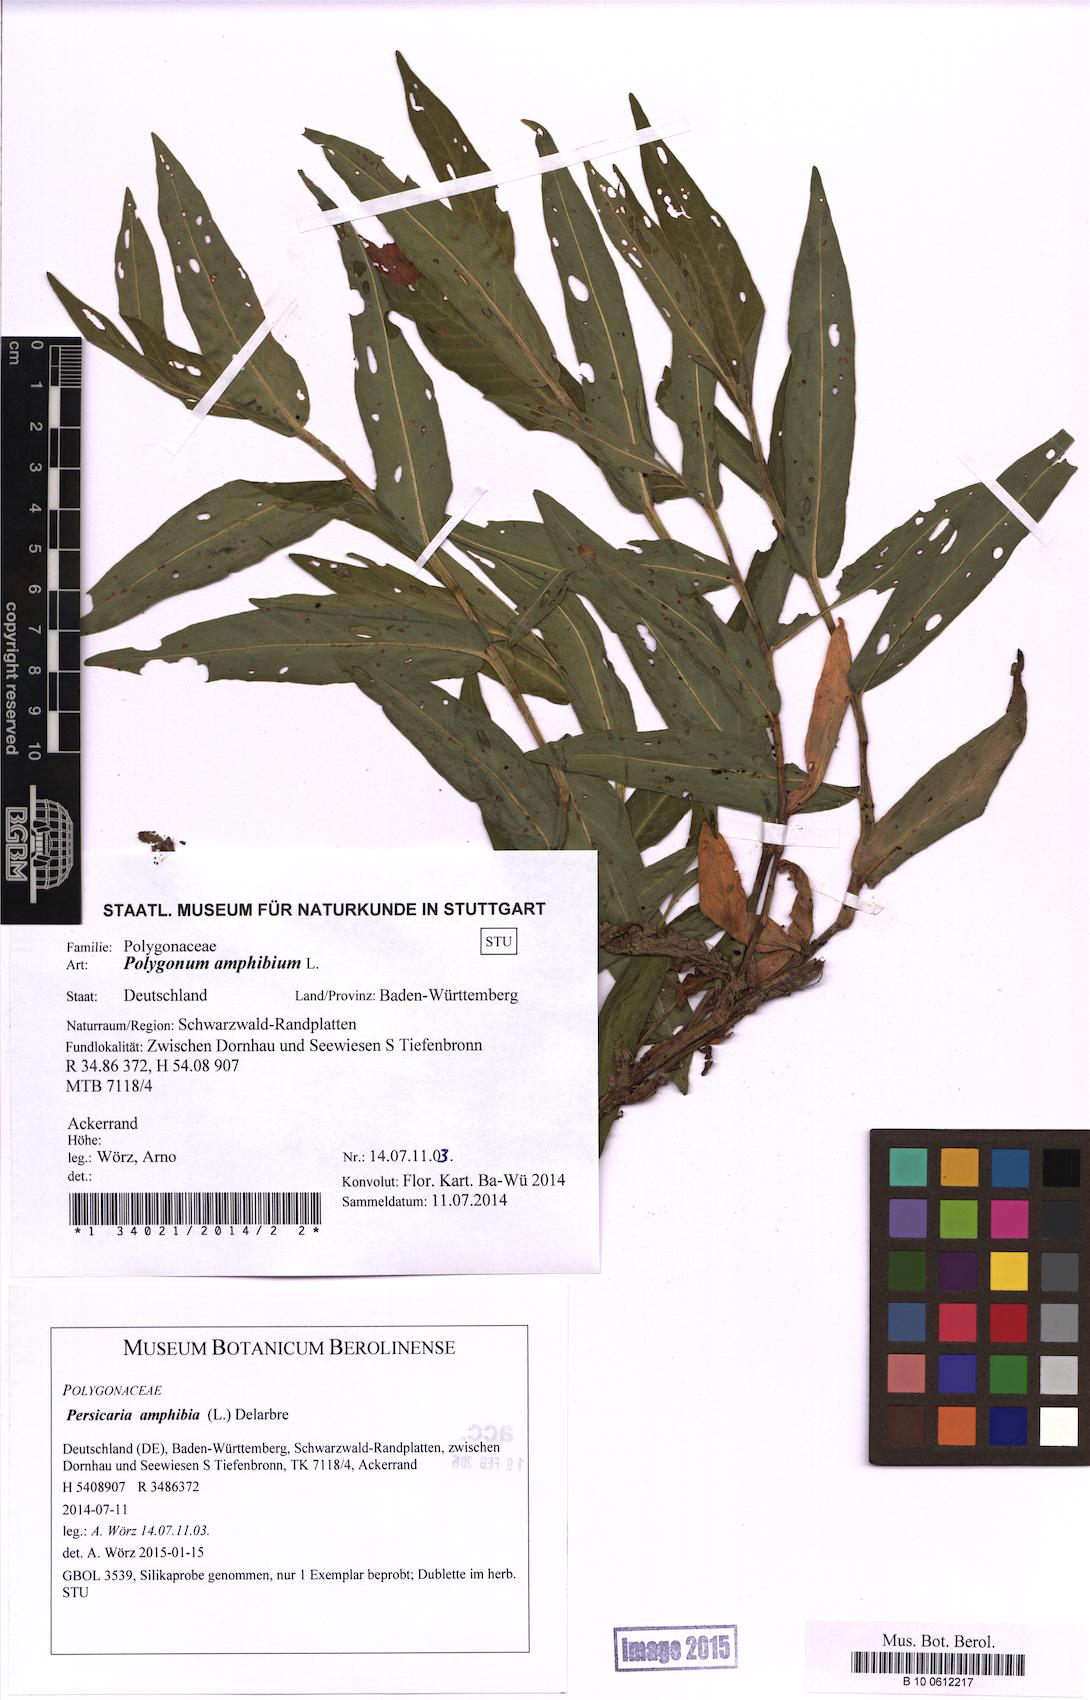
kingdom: Plantae
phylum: Tracheophyta
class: Magnoliopsida
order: Caryophyllales
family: Polygonaceae
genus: Persicaria
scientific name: Persicaria amphibia
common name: Amphibious bistort
